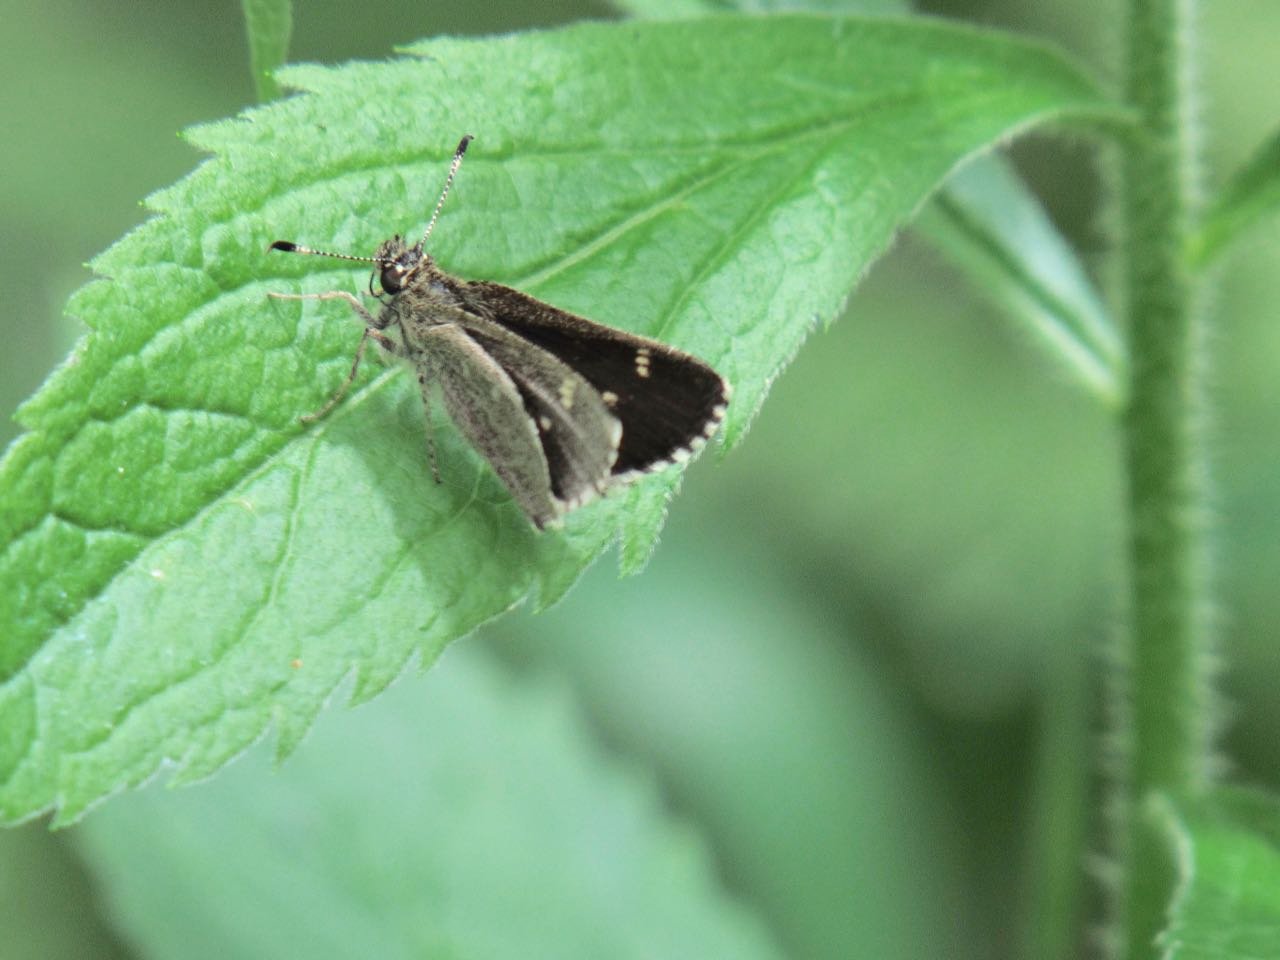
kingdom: Animalia
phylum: Arthropoda
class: Insecta
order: Lepidoptera
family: Hesperiidae
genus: Mastor
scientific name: Mastor hegon
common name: Pepper and Salt Skipper
